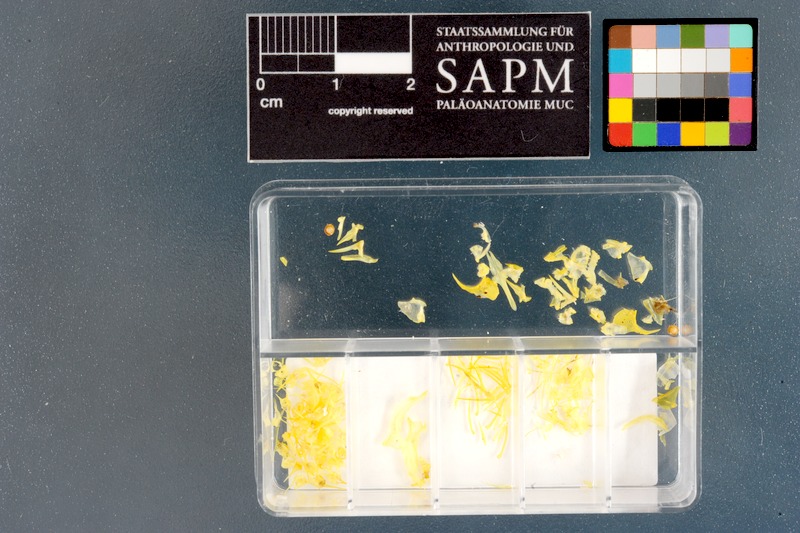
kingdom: Animalia
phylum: Chordata
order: Perciformes
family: Clinidae
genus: Blennioclinus
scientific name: Blennioclinus brachycephalus
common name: Lace klipfish
